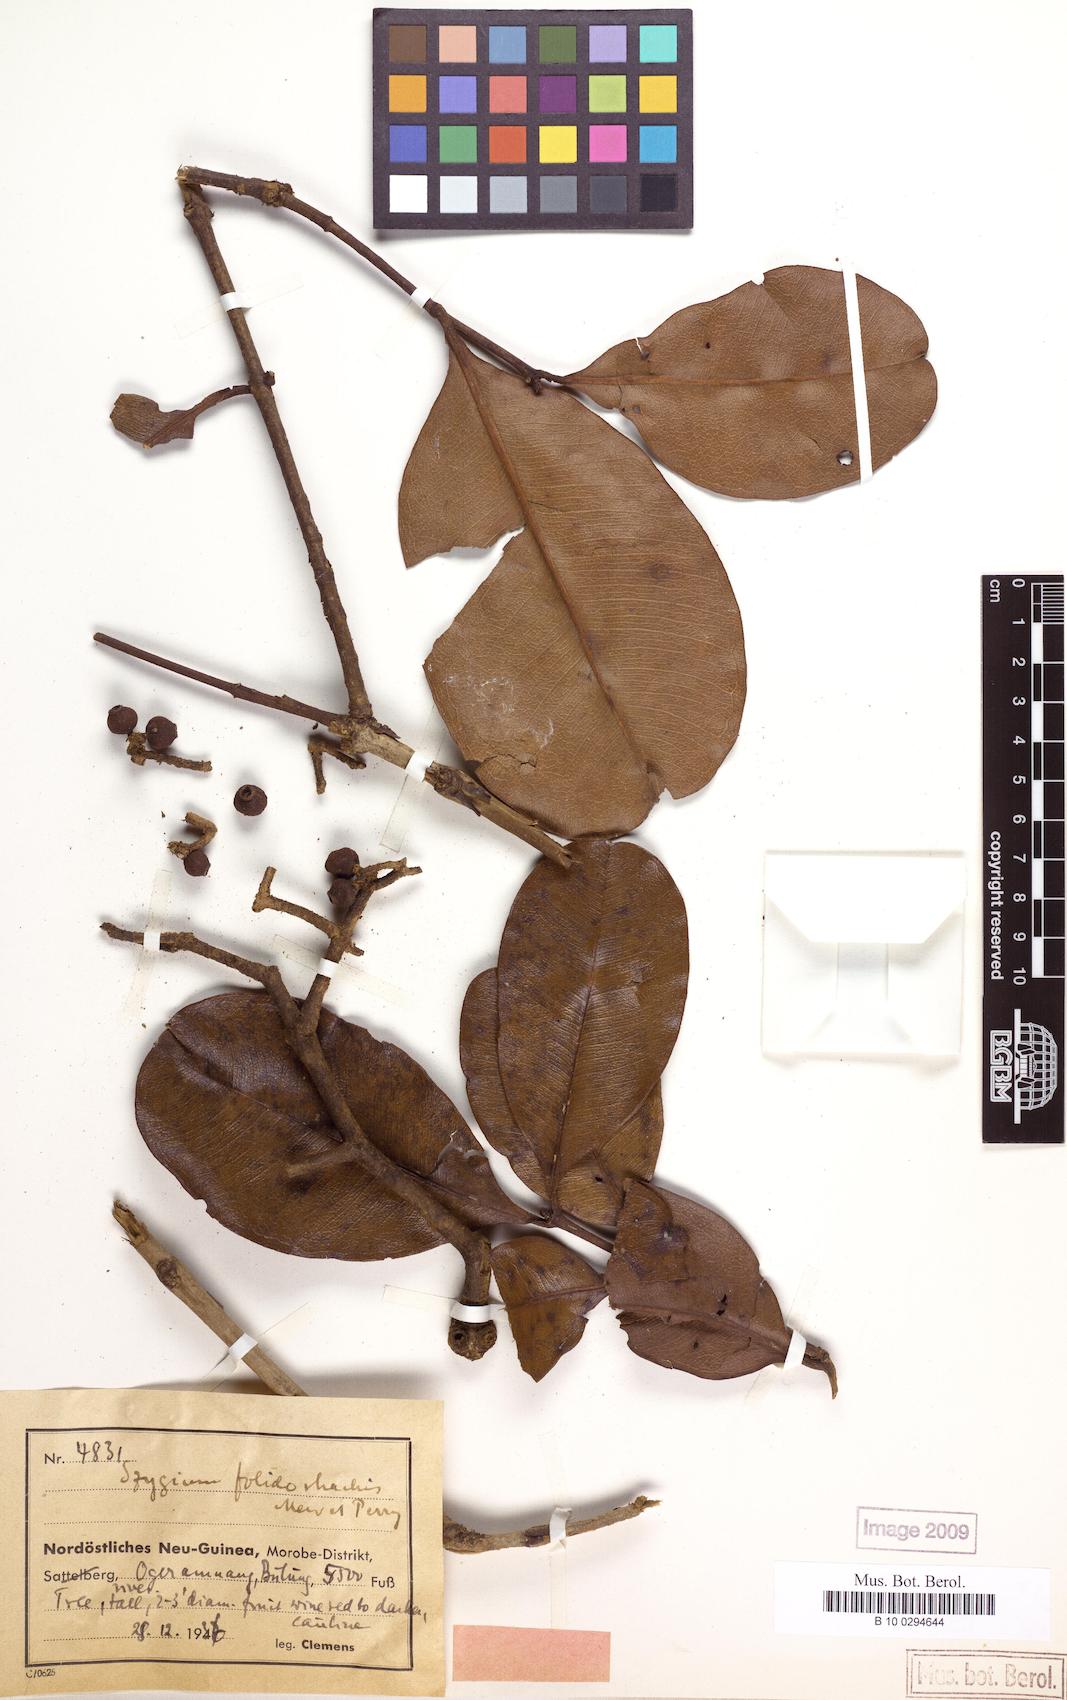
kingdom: Plantae
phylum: Tracheophyta
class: Magnoliopsida
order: Myrtales
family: Myrtaceae
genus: Syzygium
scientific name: Syzygium furfuraceum
